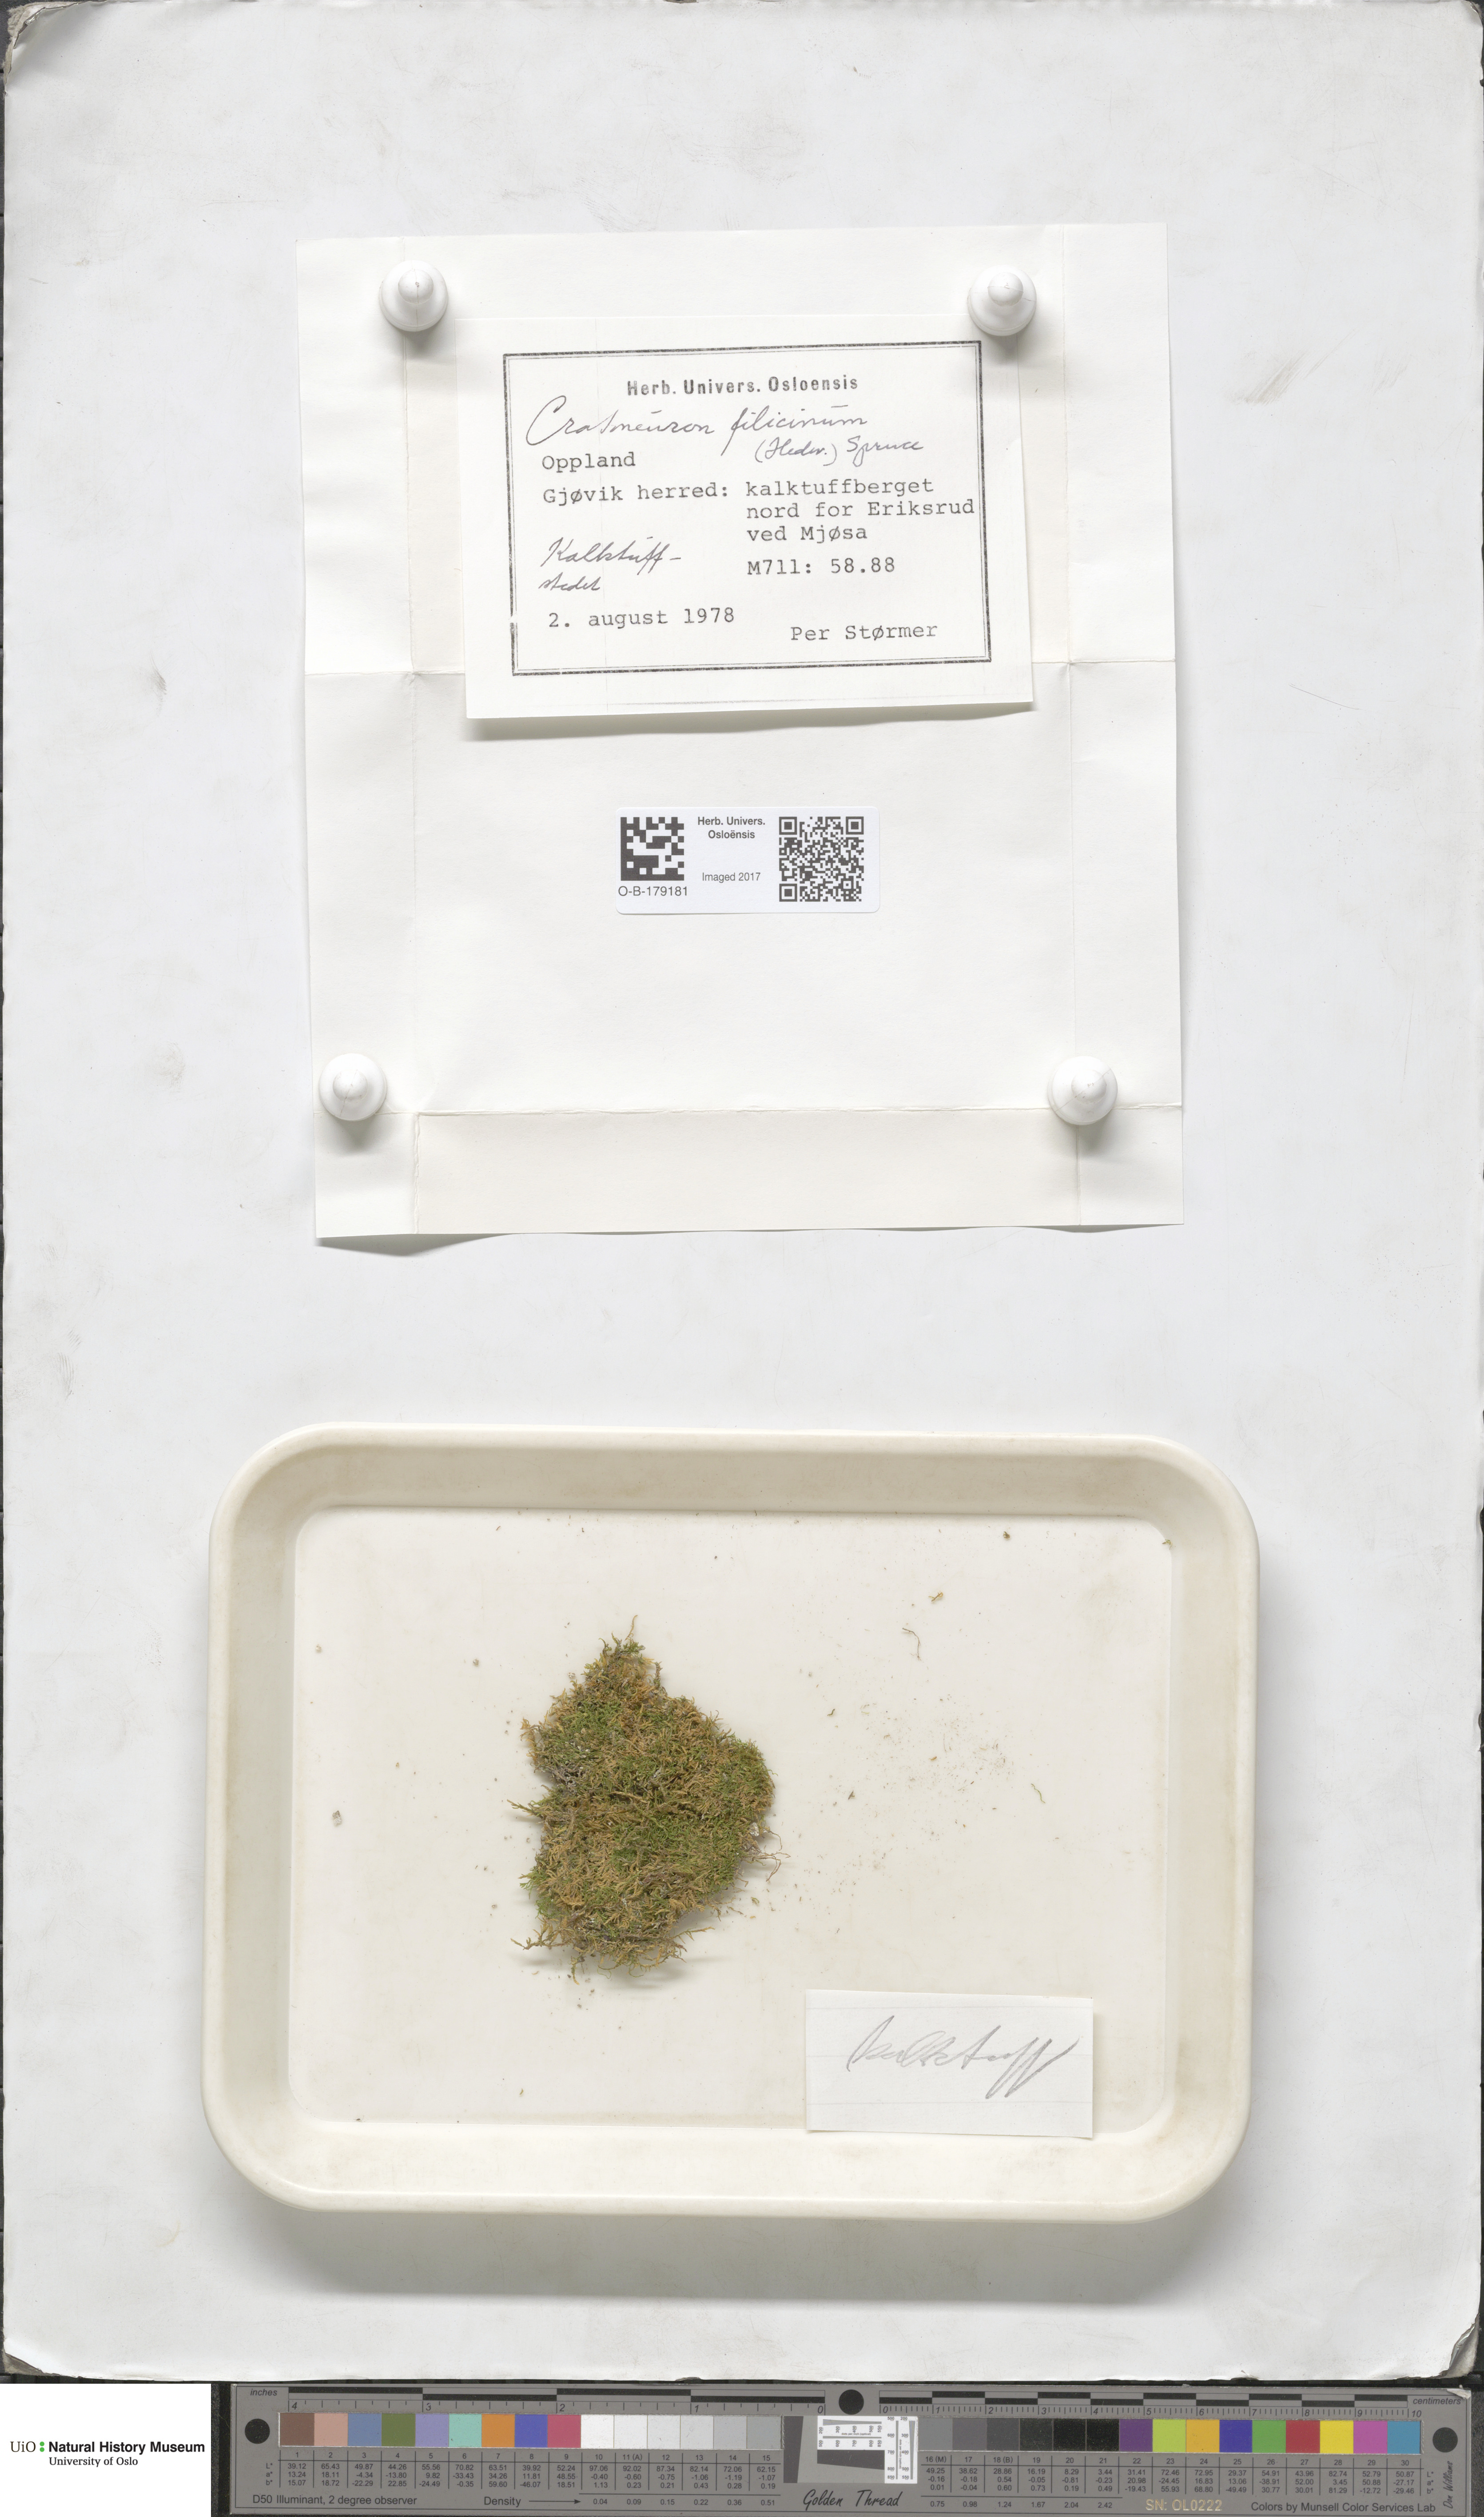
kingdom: Plantae
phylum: Bryophyta
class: Bryopsida
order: Hypnales
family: Amblystegiaceae
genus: Cratoneuron
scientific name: Cratoneuron filicinum
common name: Fern-leaved hook moss
